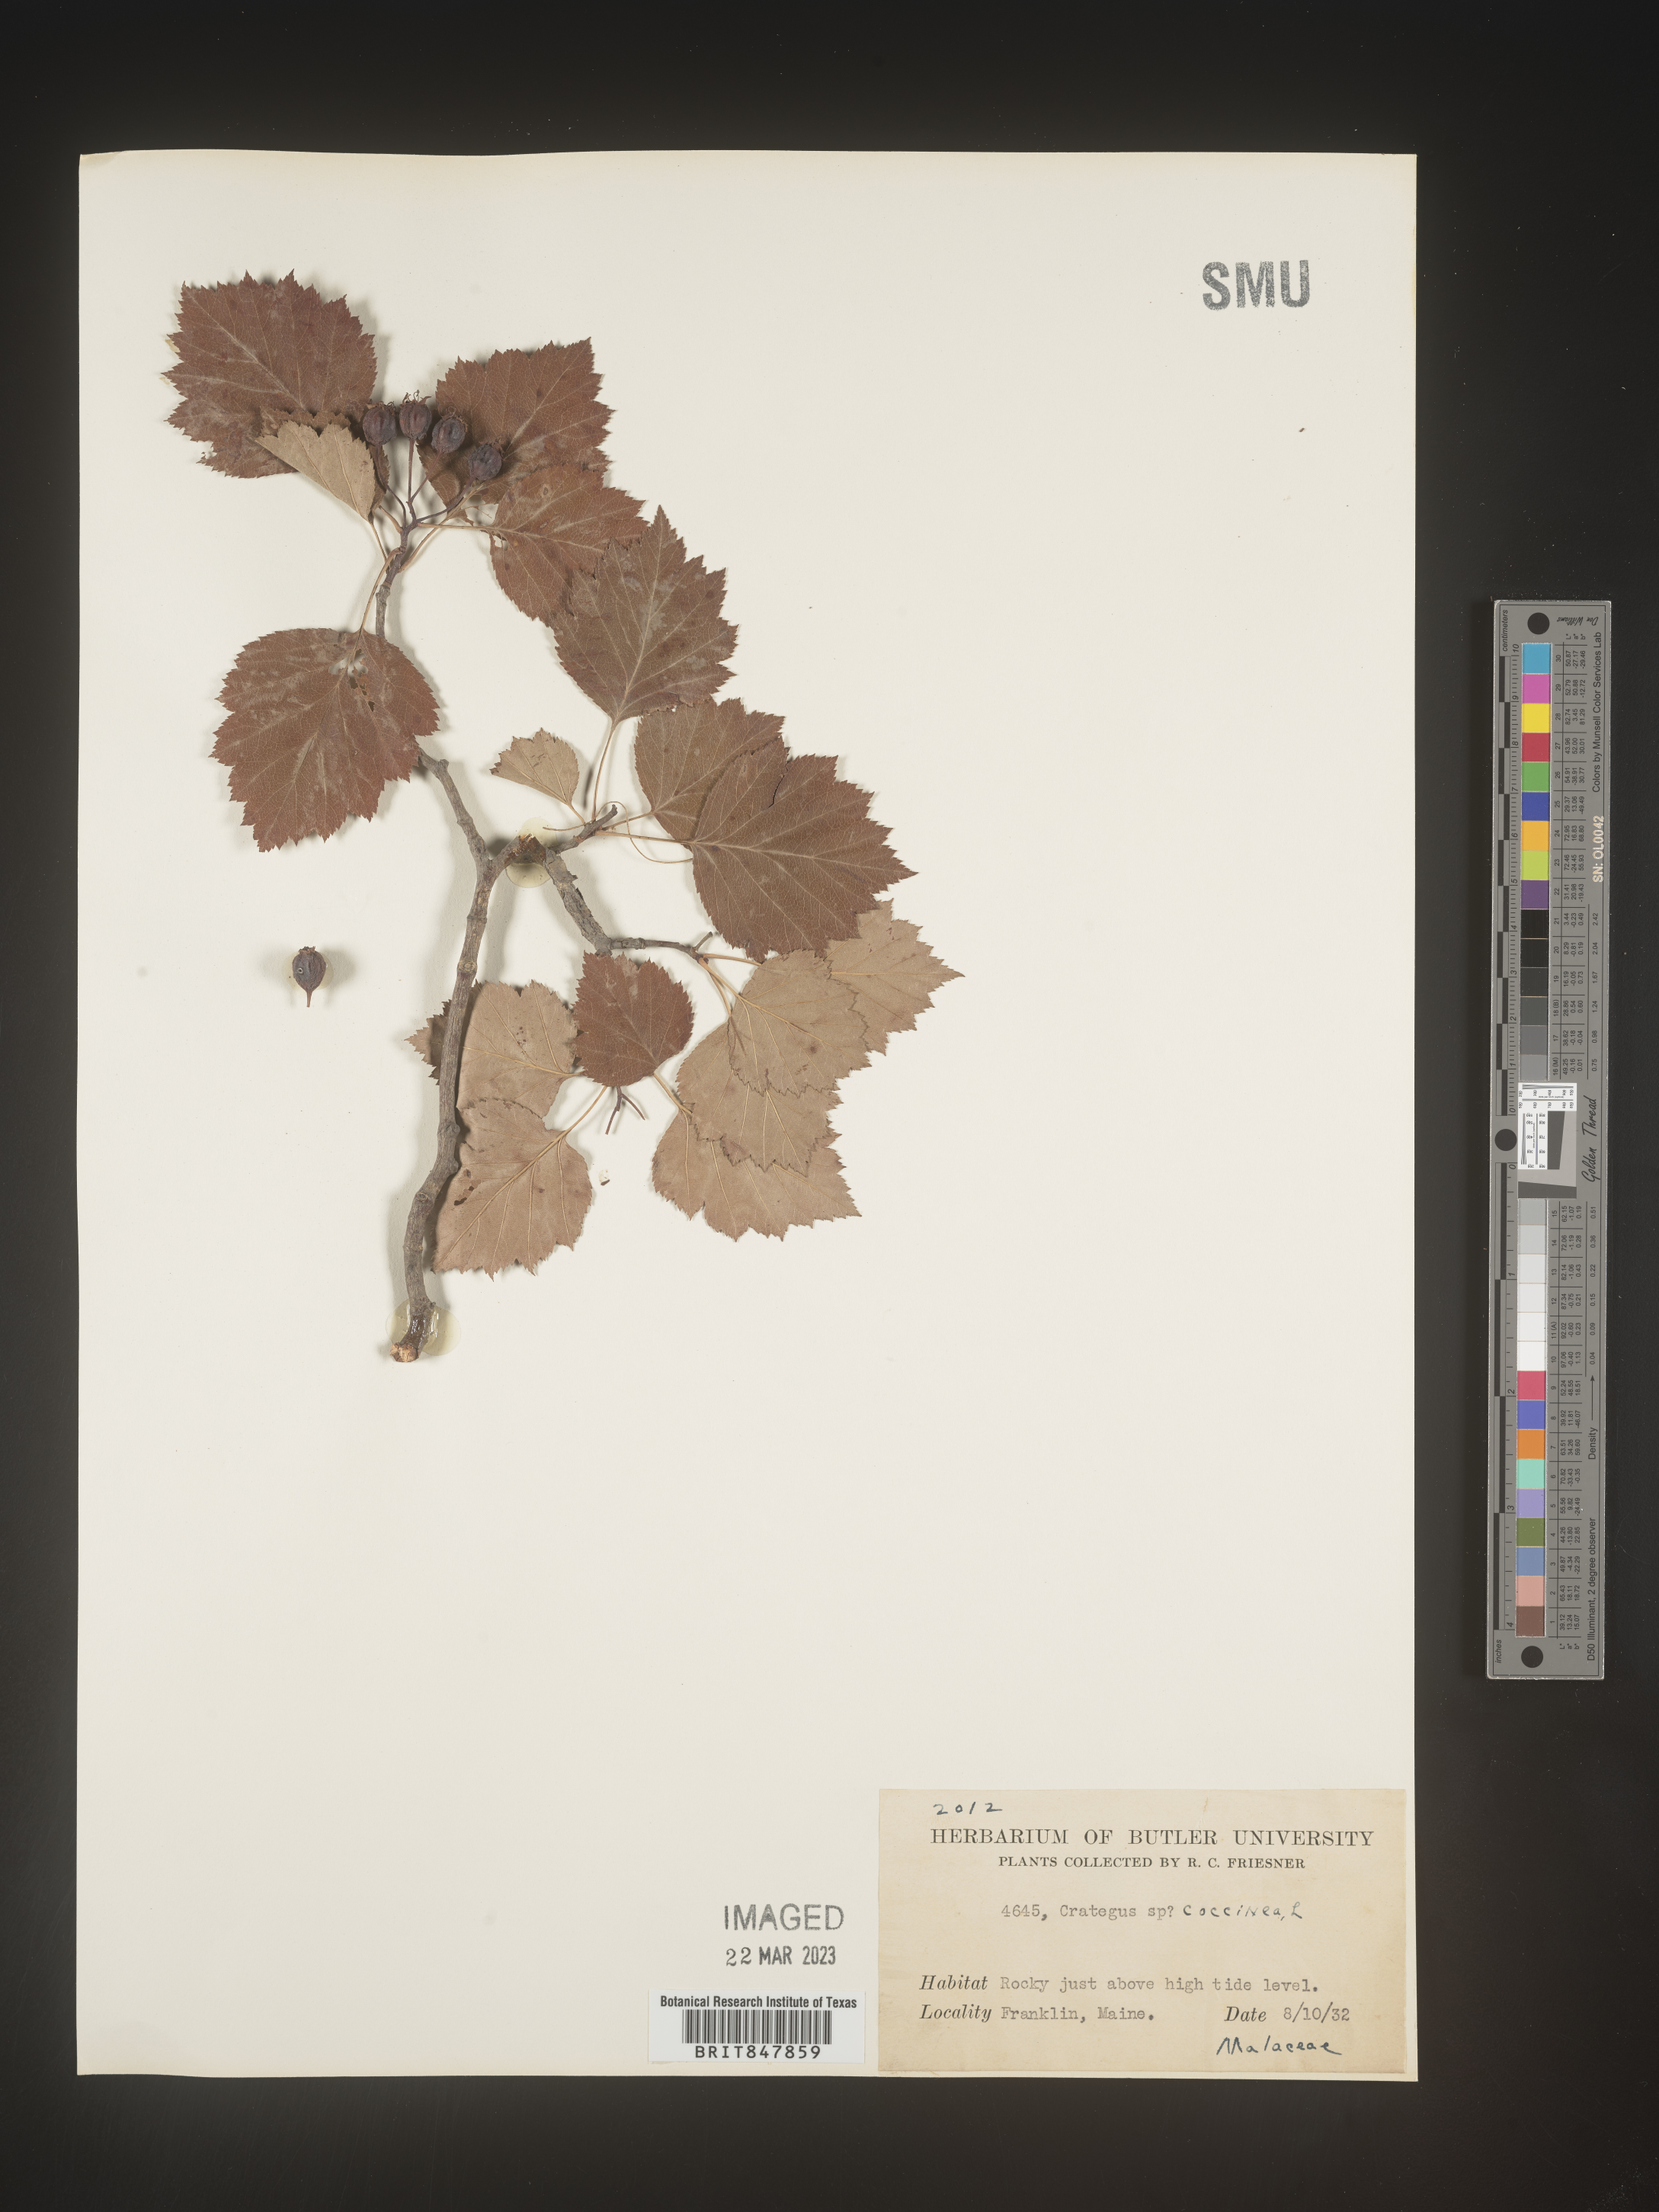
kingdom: Plantae
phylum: Tracheophyta
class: Magnoliopsida
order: Rosales
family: Rosaceae
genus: Crataegus
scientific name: Crataegus
